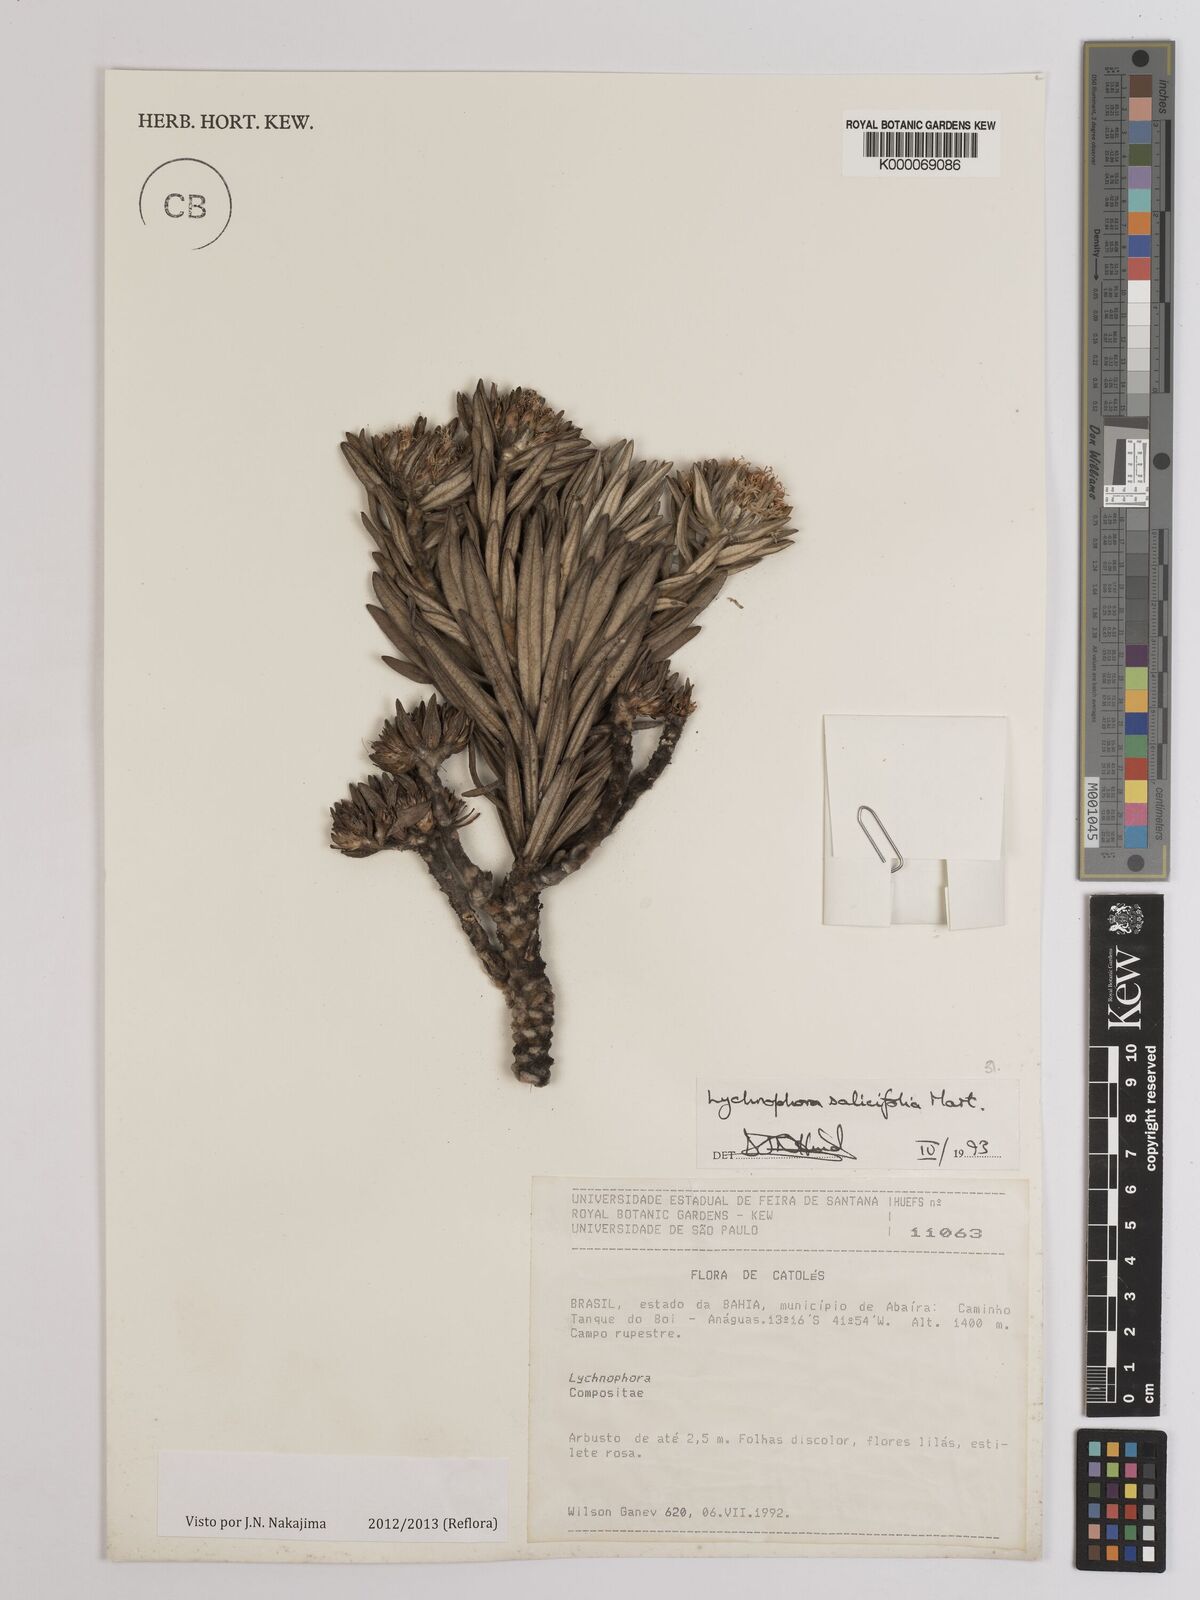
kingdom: Plantae
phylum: Tracheophyta
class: Magnoliopsida
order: Asterales
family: Asteraceae
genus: Lychnophora
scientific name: Lychnophora salicifolia
